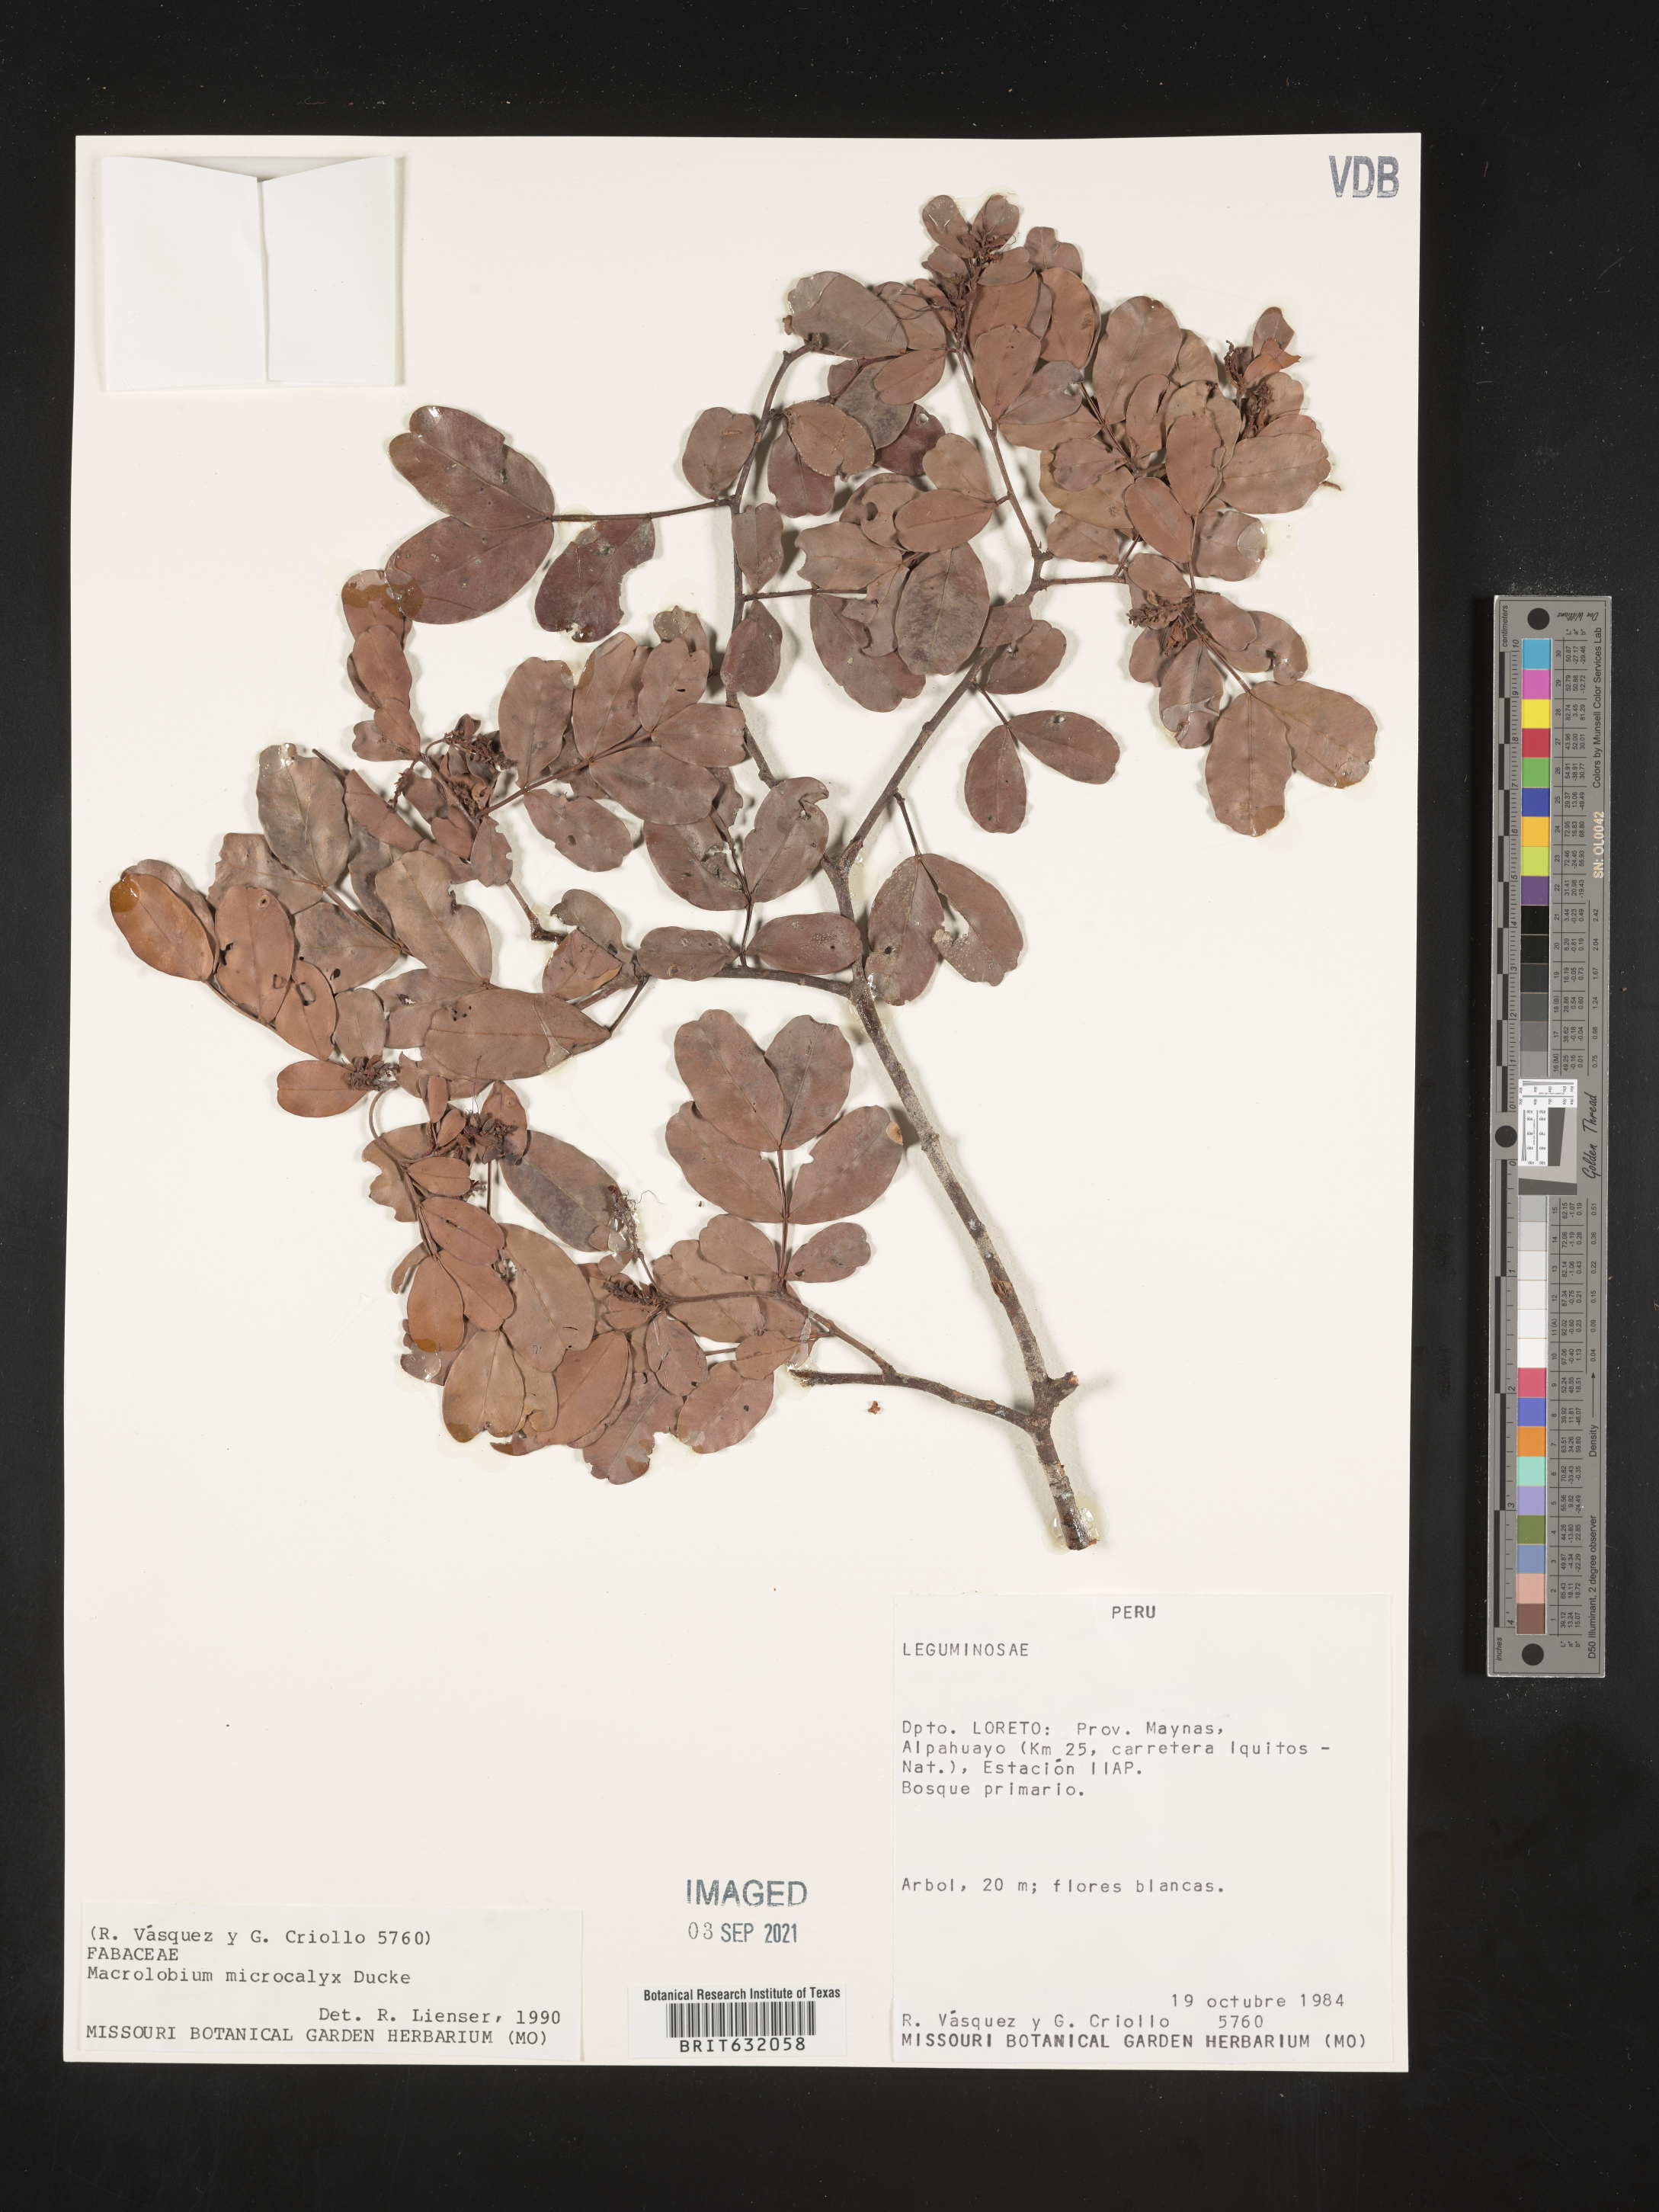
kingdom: Plantae
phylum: Tracheophyta
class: Magnoliopsida
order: Fabales
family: Fabaceae
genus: Macrolobium
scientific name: Macrolobium
